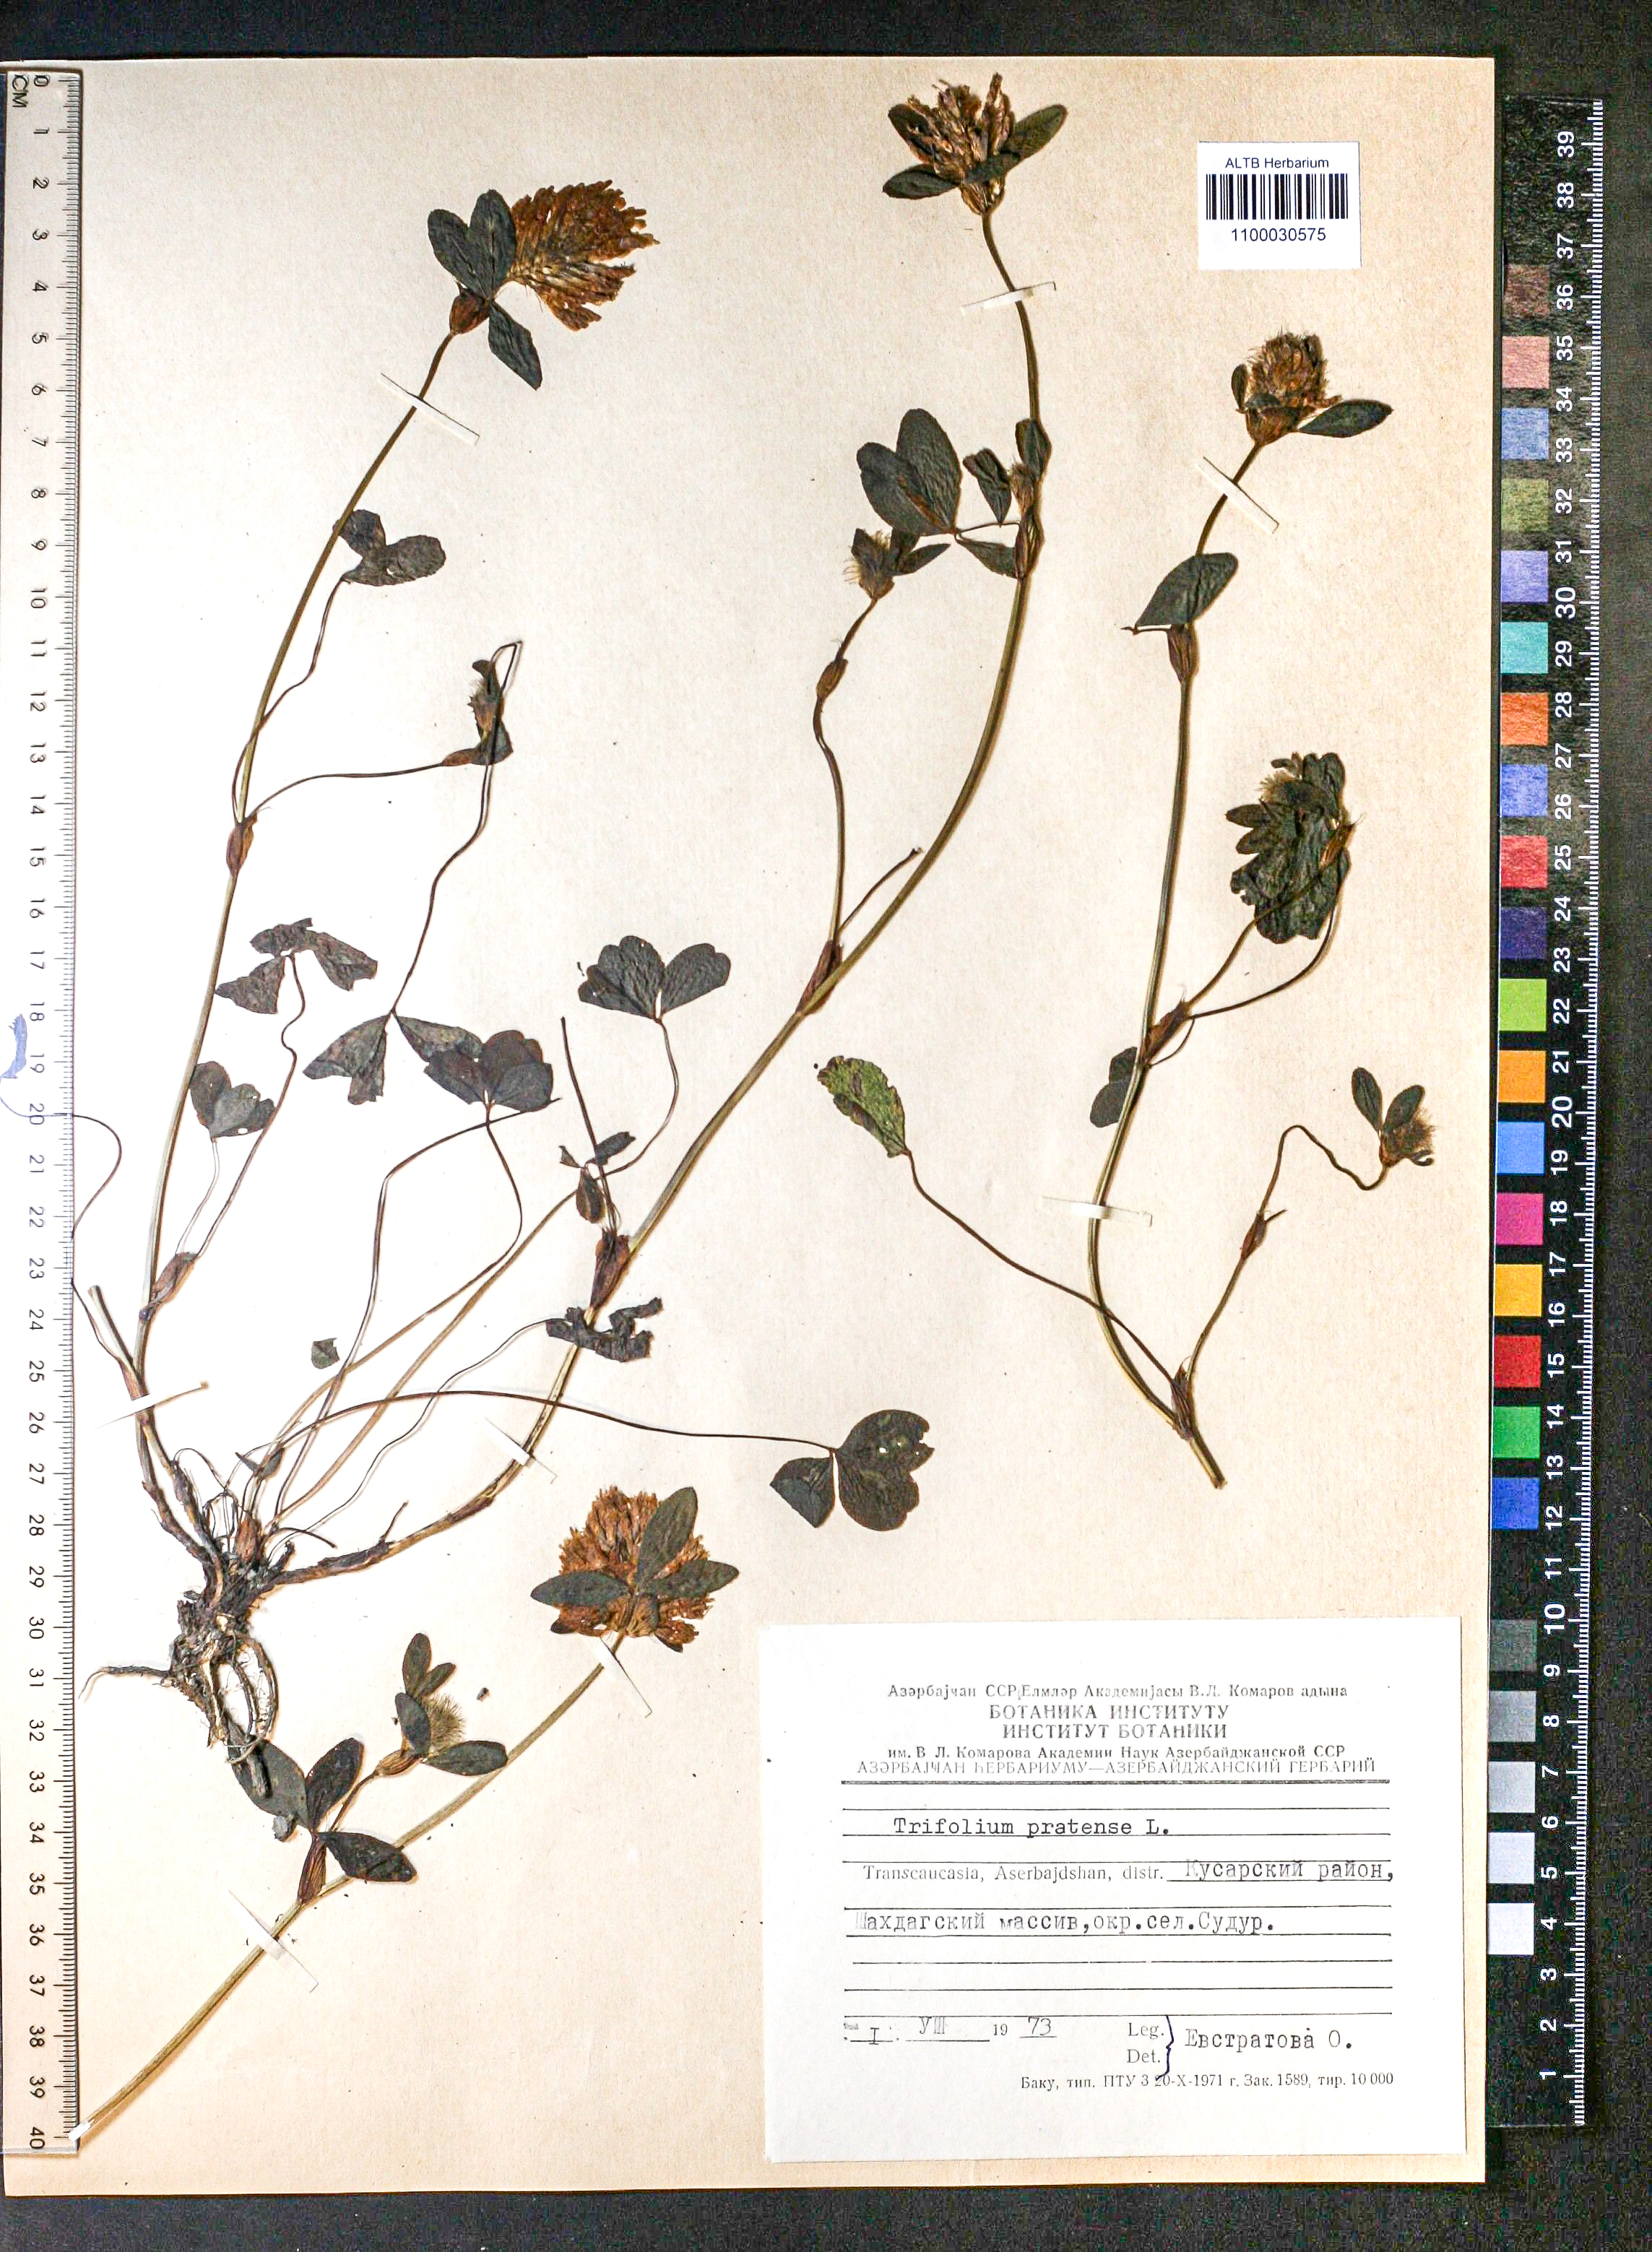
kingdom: Plantae
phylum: Tracheophyta
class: Magnoliopsida
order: Fabales
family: Fabaceae
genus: Trifolium
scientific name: Trifolium pratense
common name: Red clover
